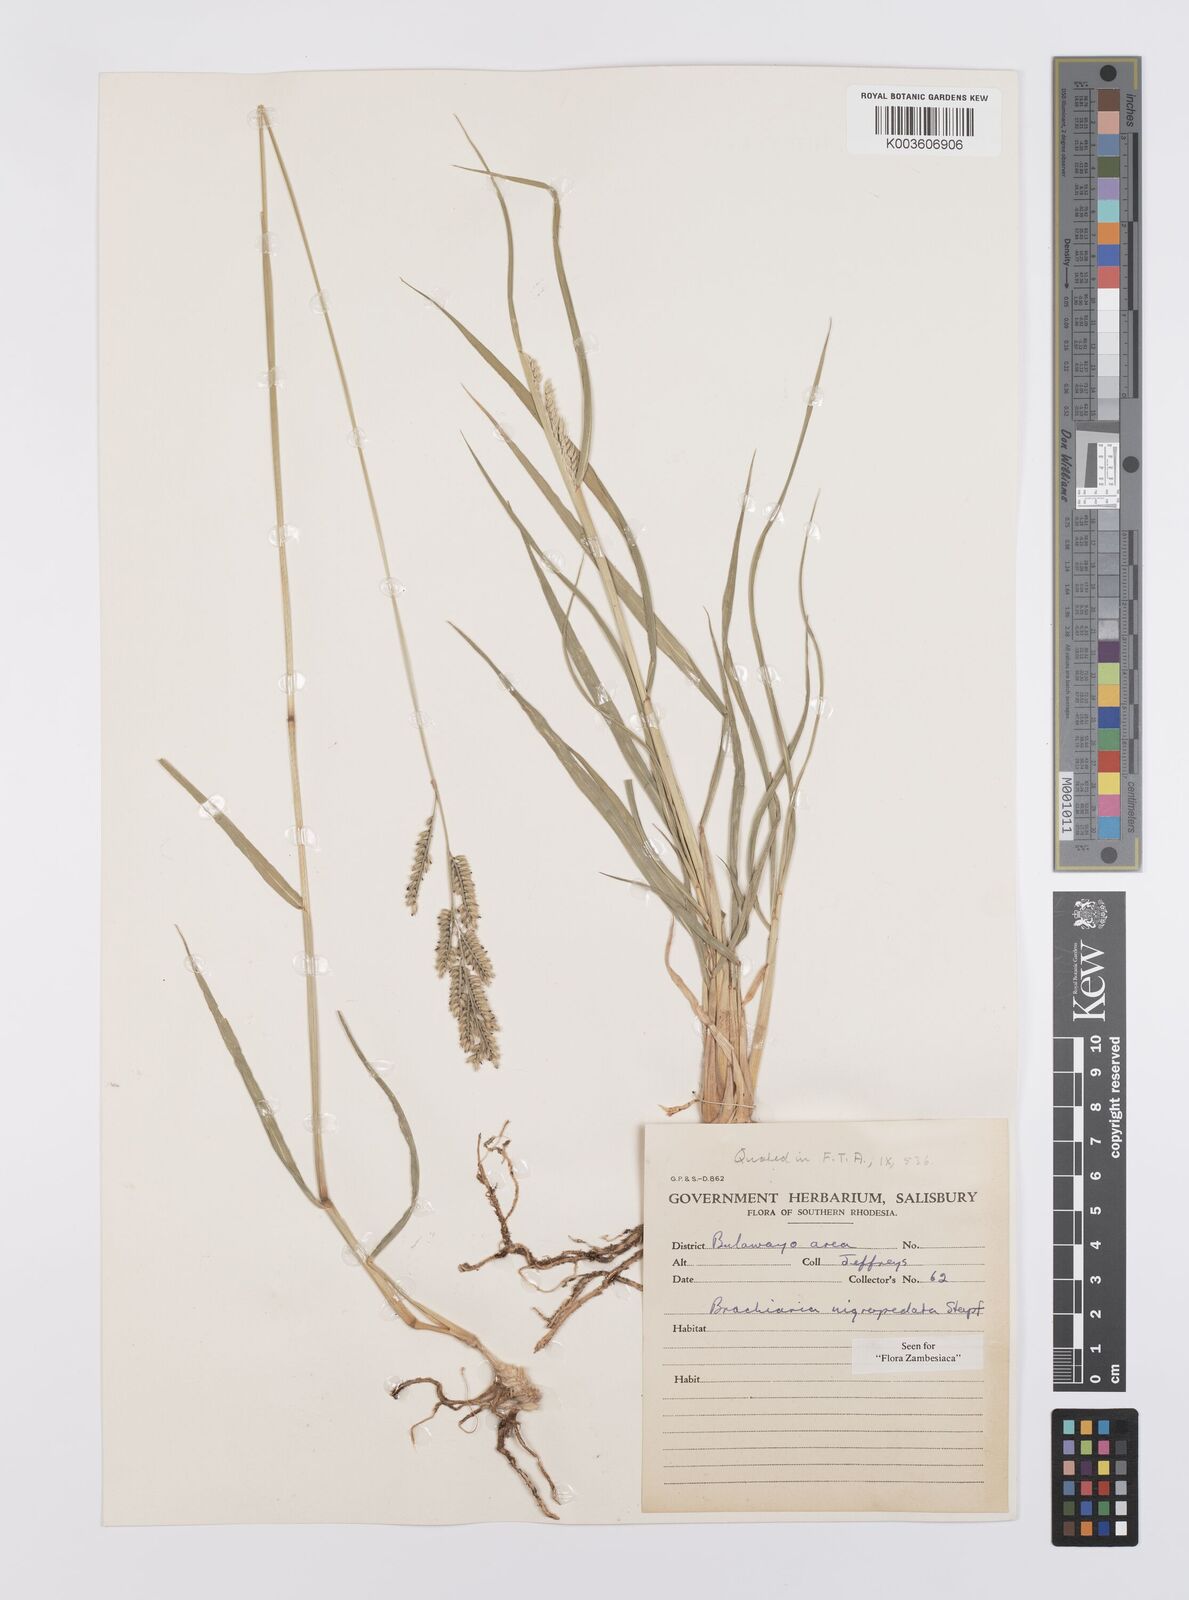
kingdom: Plantae
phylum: Tracheophyta
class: Liliopsida
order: Poales
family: Poaceae
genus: Urochloa
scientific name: Urochloa nigropedata
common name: Spotted signal grass
